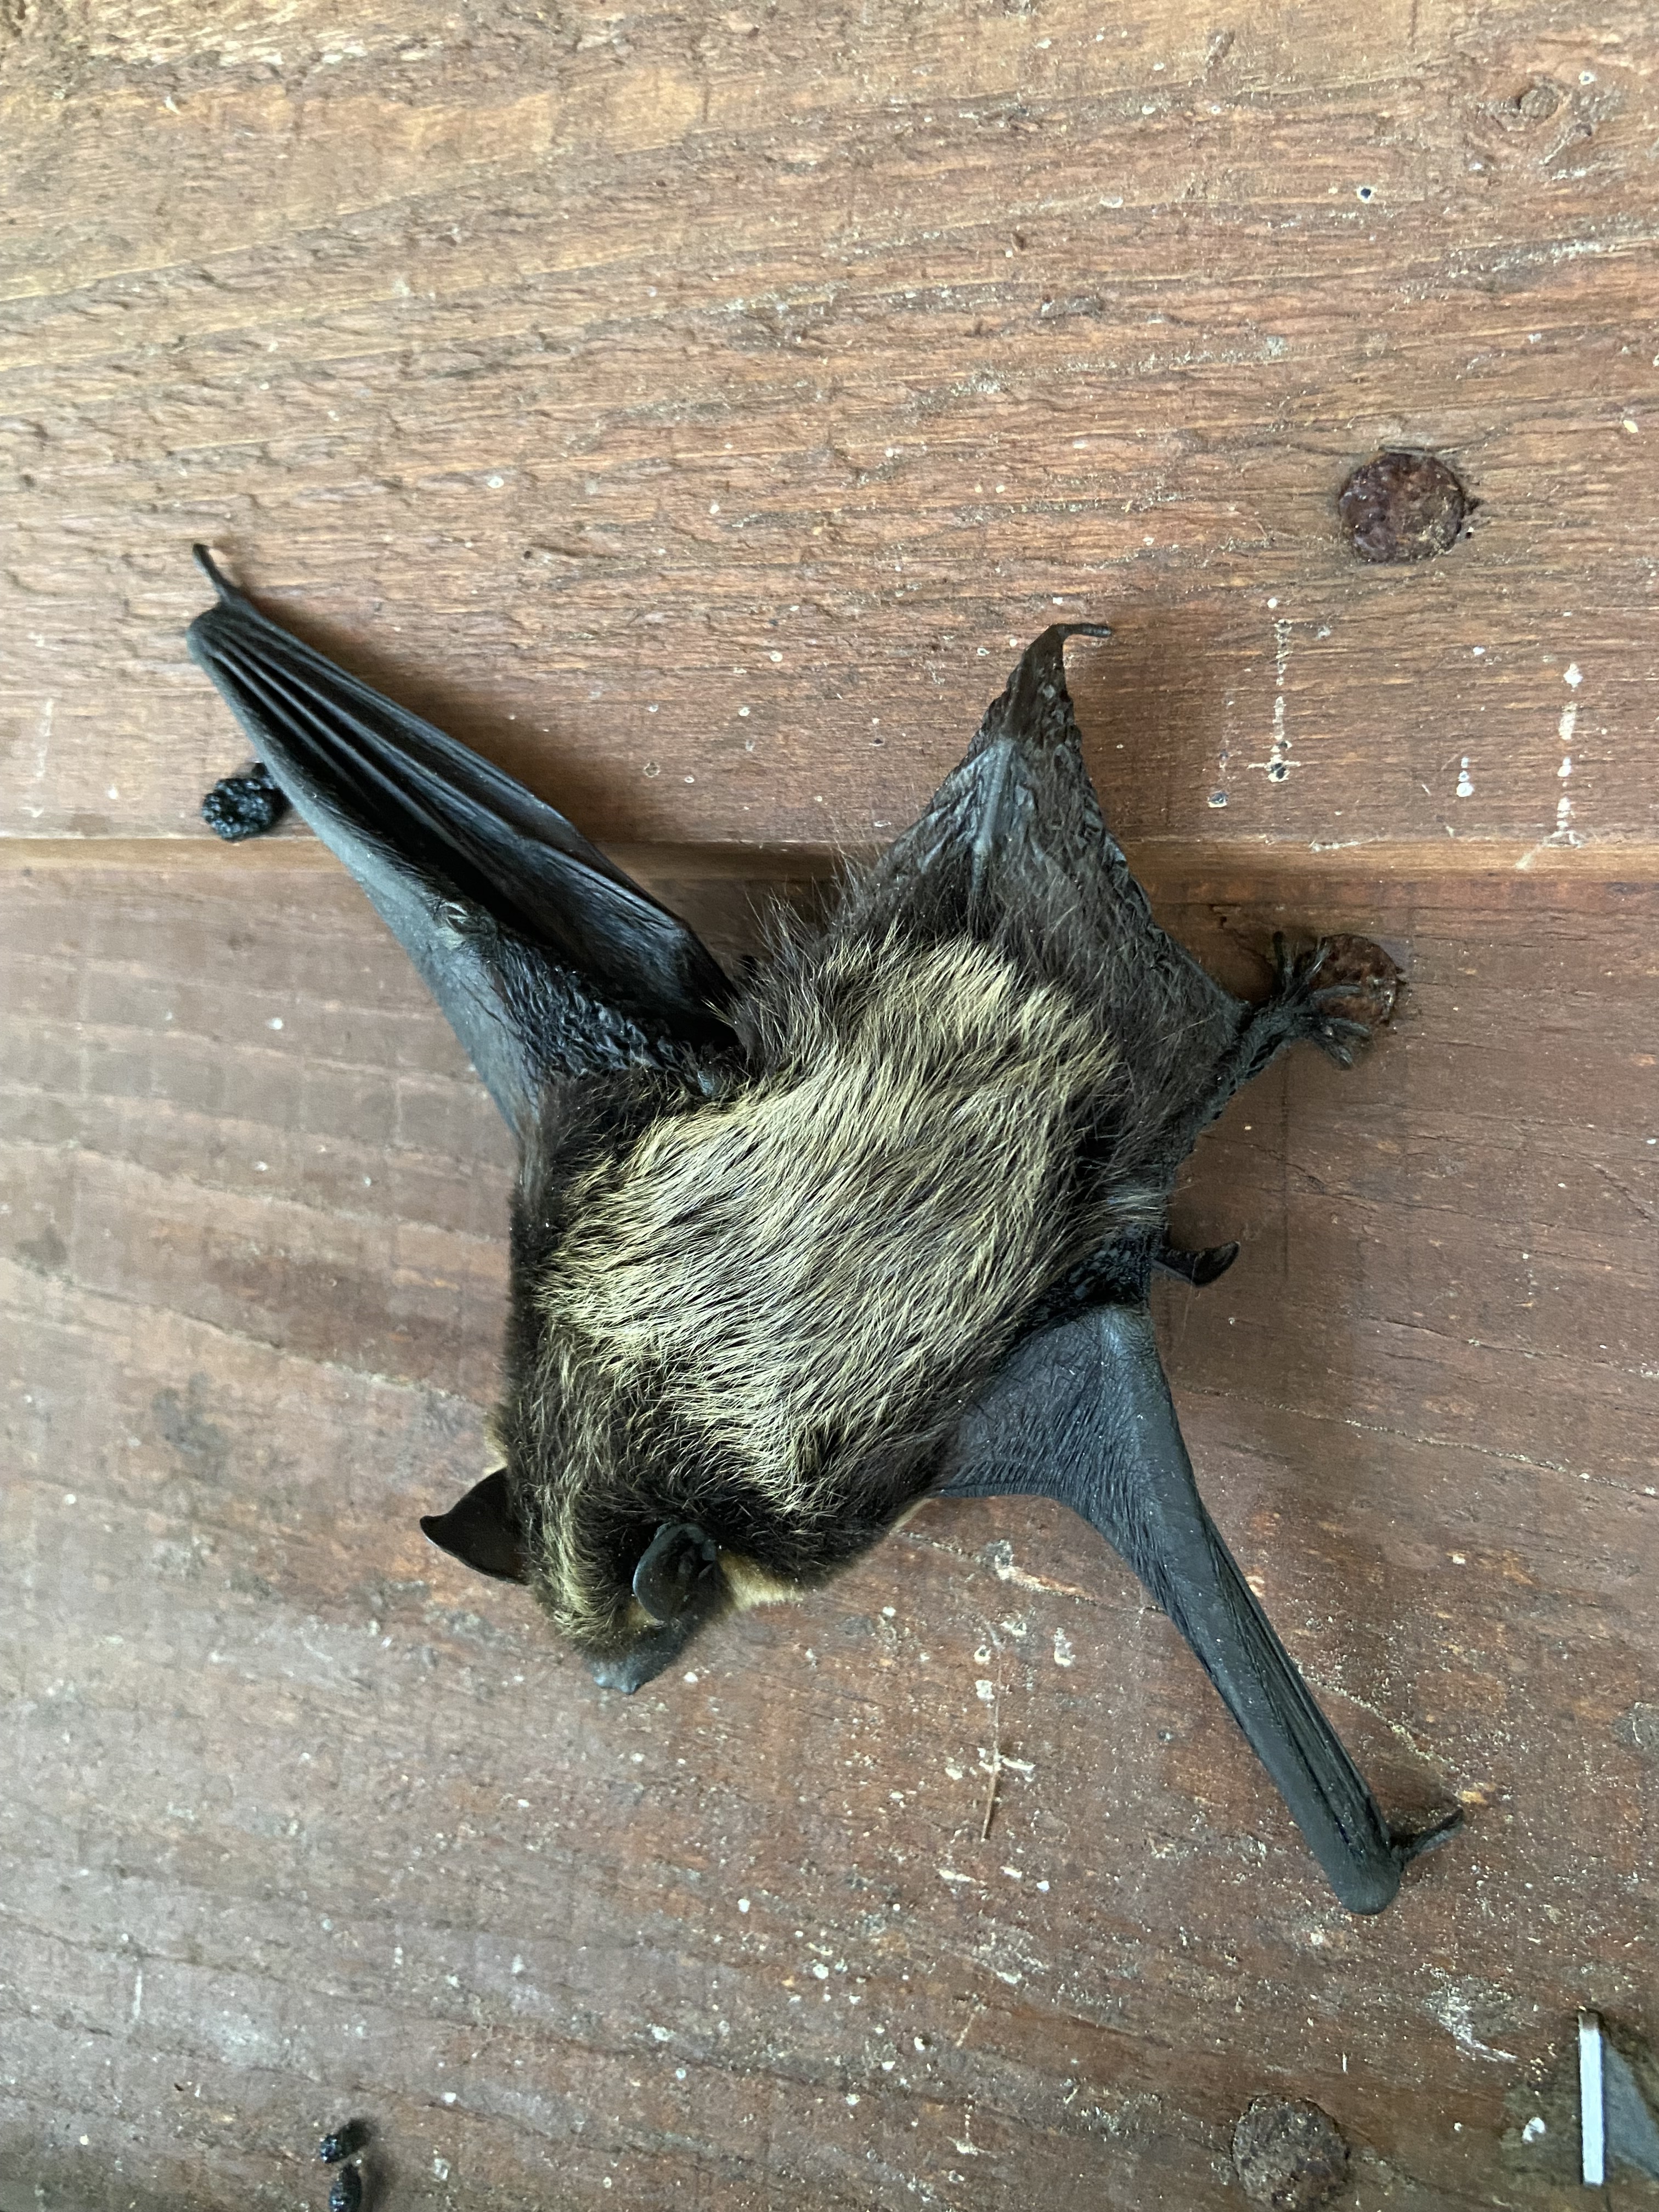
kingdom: Animalia
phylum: Chordata
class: Mammalia
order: Chiroptera
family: Vespertilionidae
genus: Eptesicus
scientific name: Eptesicus nilssonii
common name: Northern bat
